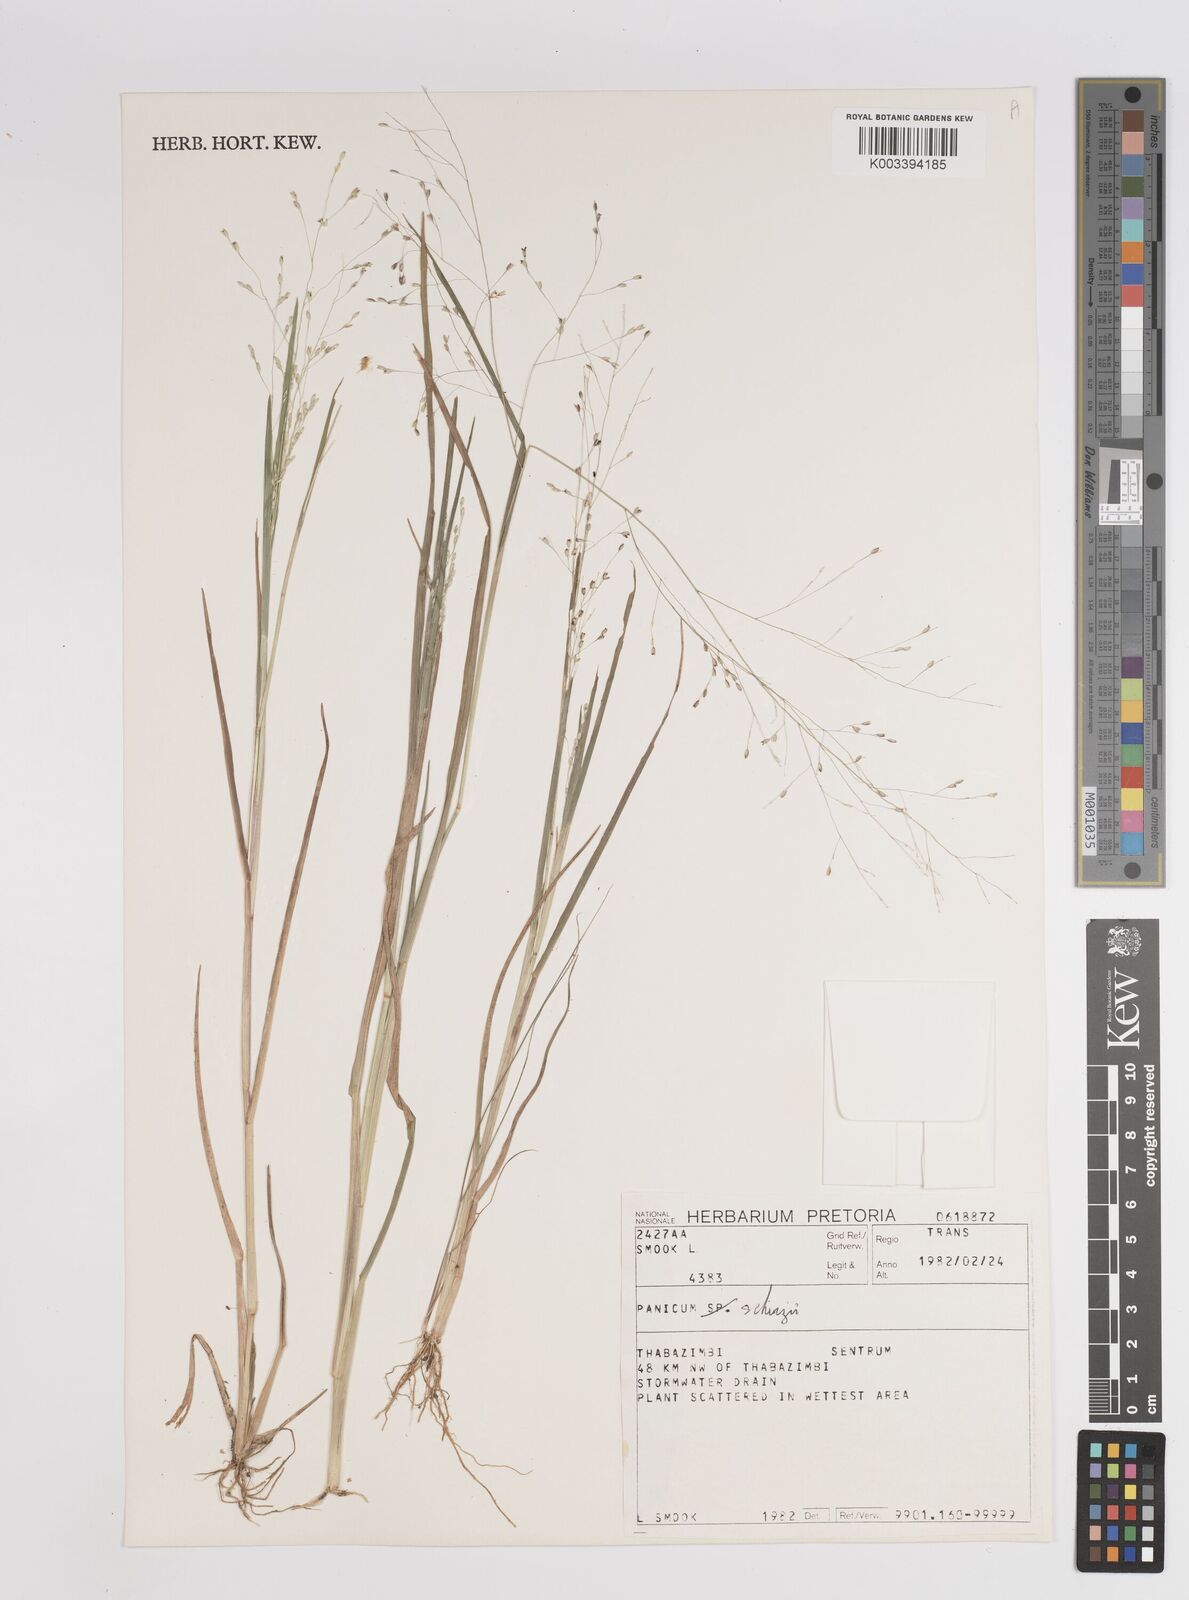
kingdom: Plantae
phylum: Tracheophyta
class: Liliopsida
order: Poales
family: Poaceae
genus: Panicum
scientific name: Panicum schinzii
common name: Sweet grass
